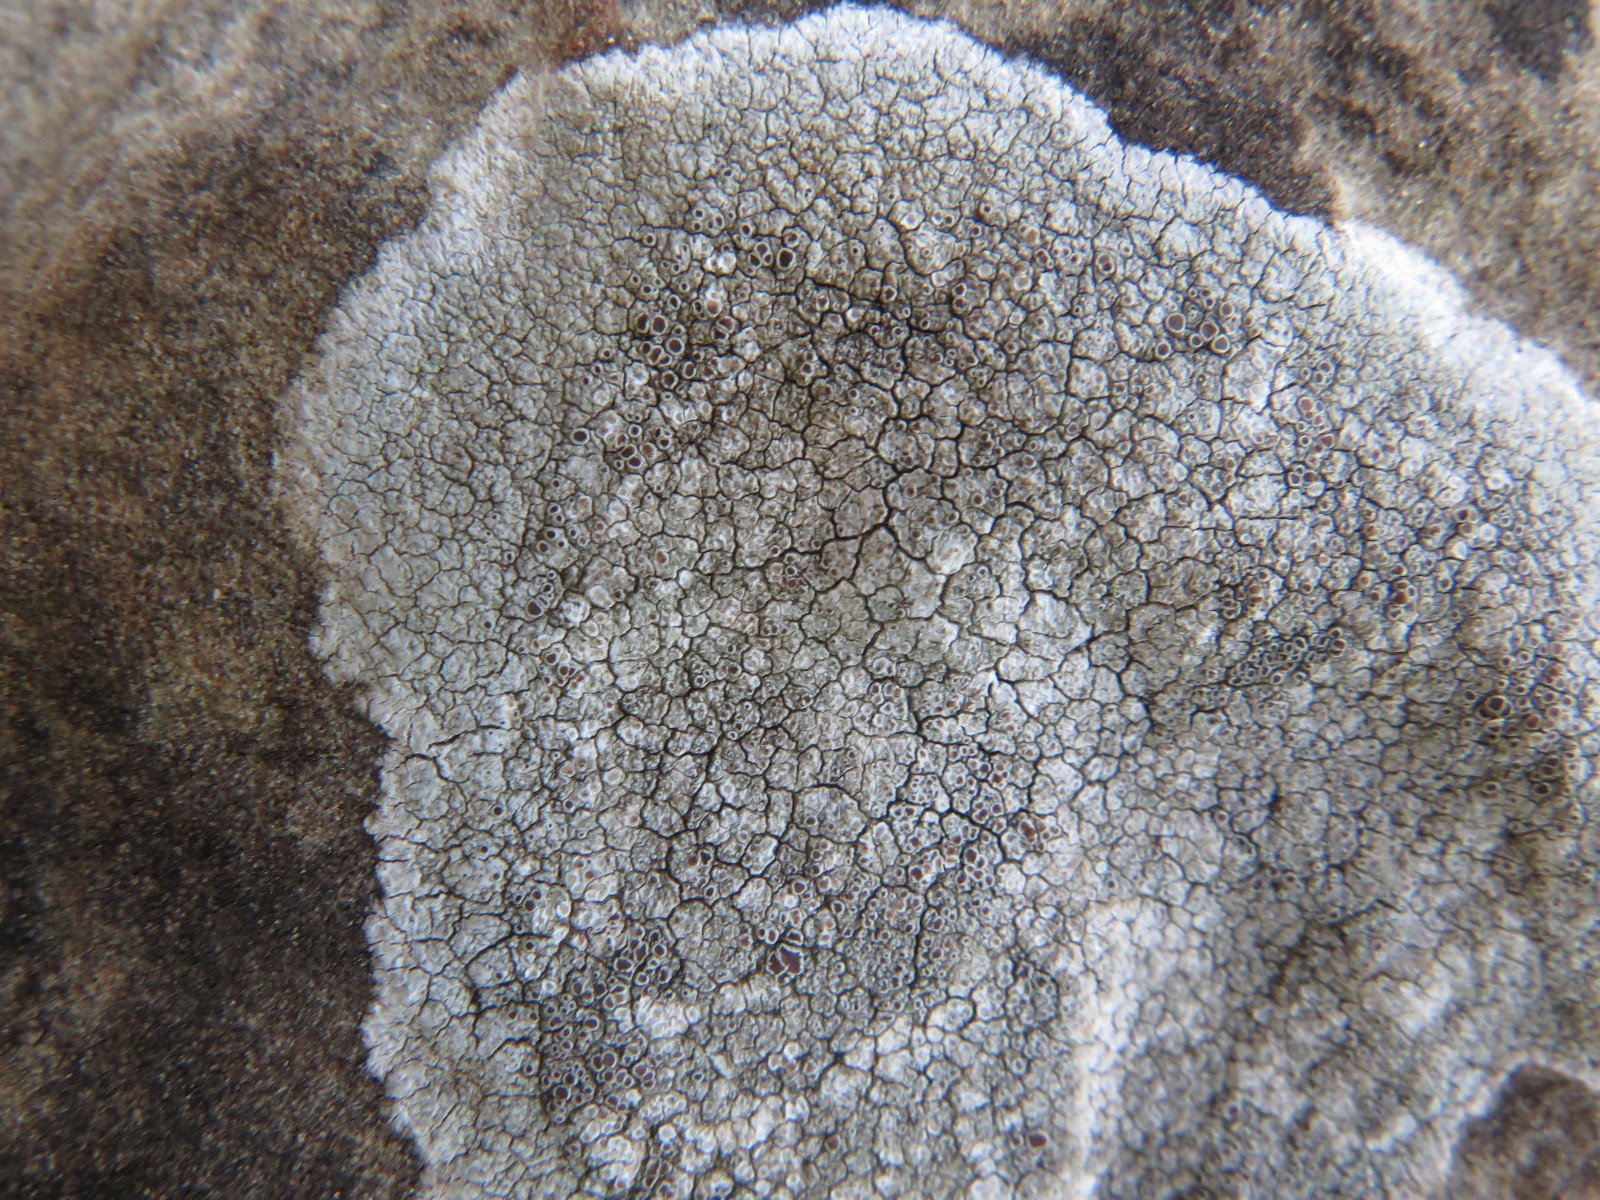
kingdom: Fungi
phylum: Ascomycota
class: Lecanoromycetes
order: Lecanorales
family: Lecanoraceae
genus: Lecanora
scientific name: Lecanora campestris
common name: mur-kantskivelav
